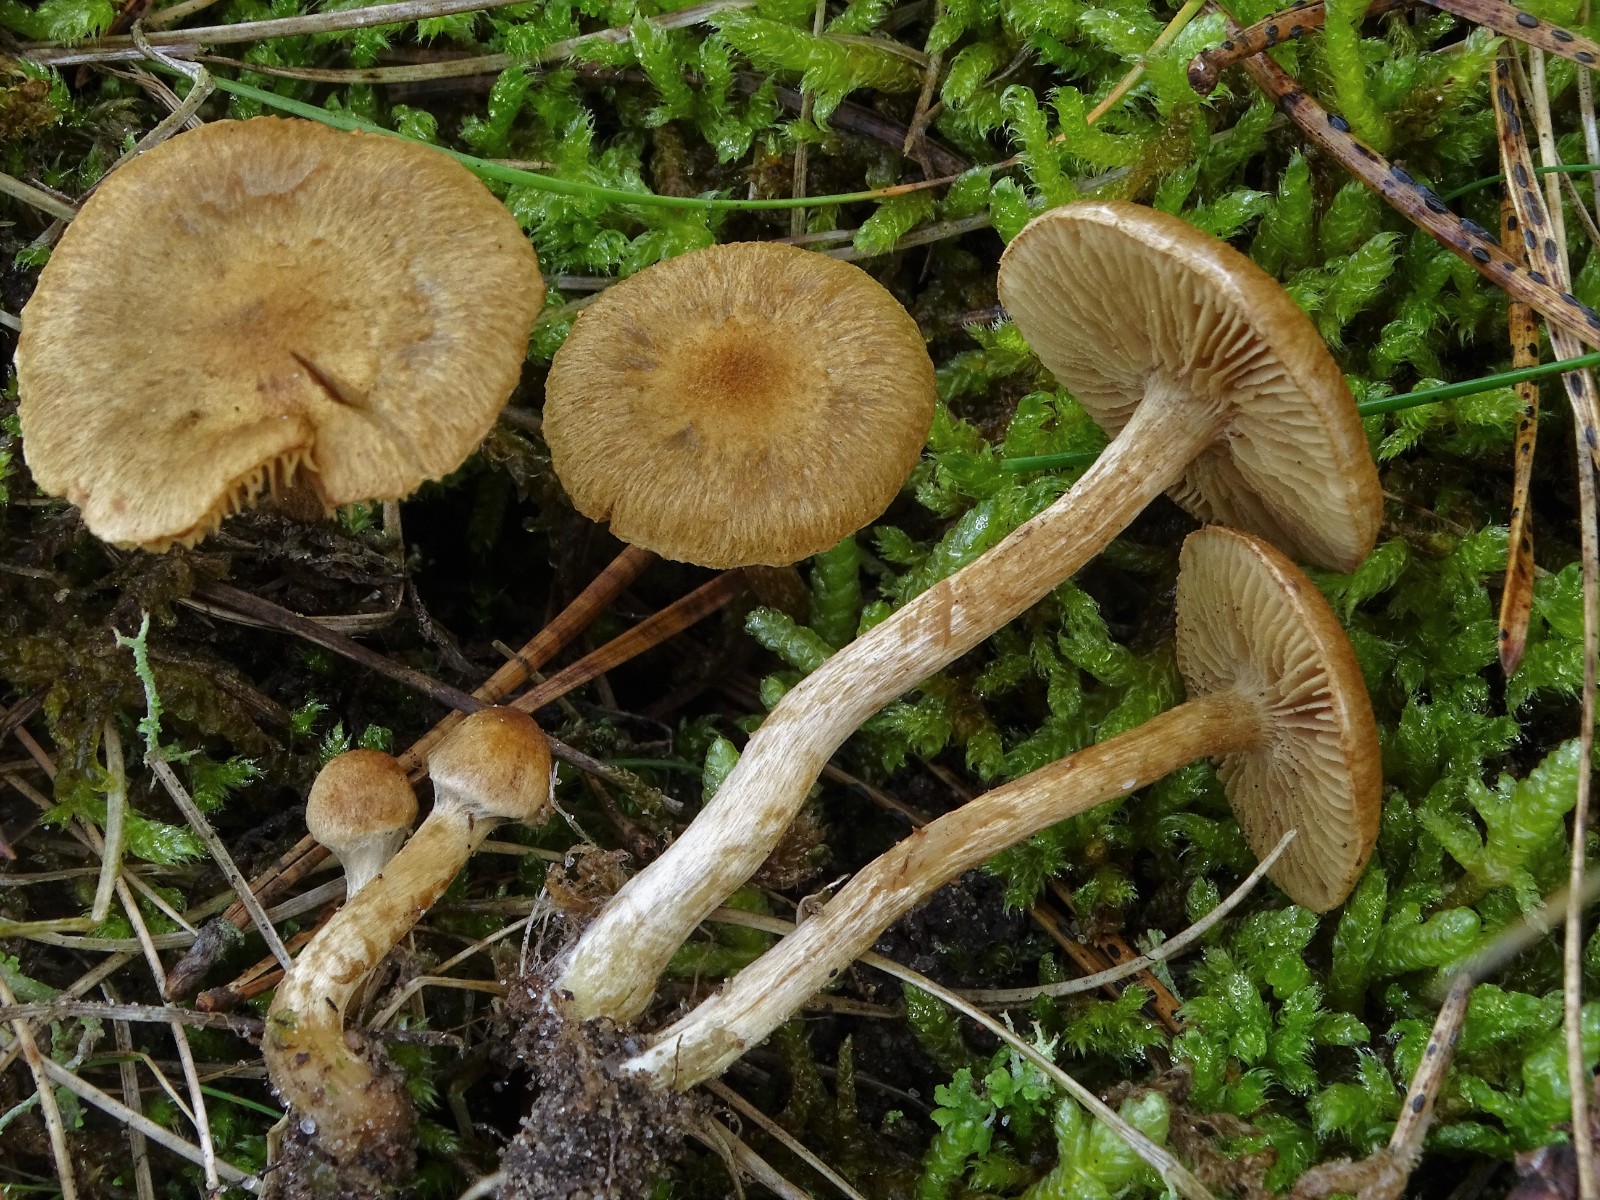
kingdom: Fungi
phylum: Basidiomycota
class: Agaricomycetes
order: Agaricales
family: Hymenogastraceae
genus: Hebeloma
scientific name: Hebeloma mesophaeum
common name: lerbrun tåreblad
